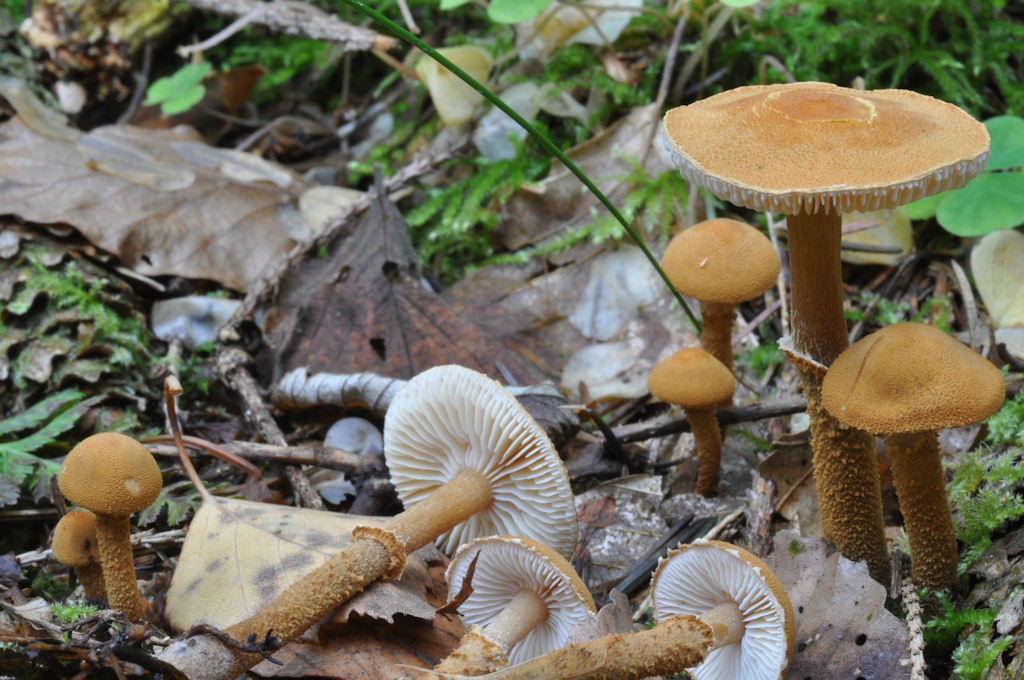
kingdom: Fungi
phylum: Basidiomycota
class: Agaricomycetes
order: Agaricales
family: Tricholomataceae
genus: Cystoderma
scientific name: Cystoderma amianthinum
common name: okkergul grynhat
